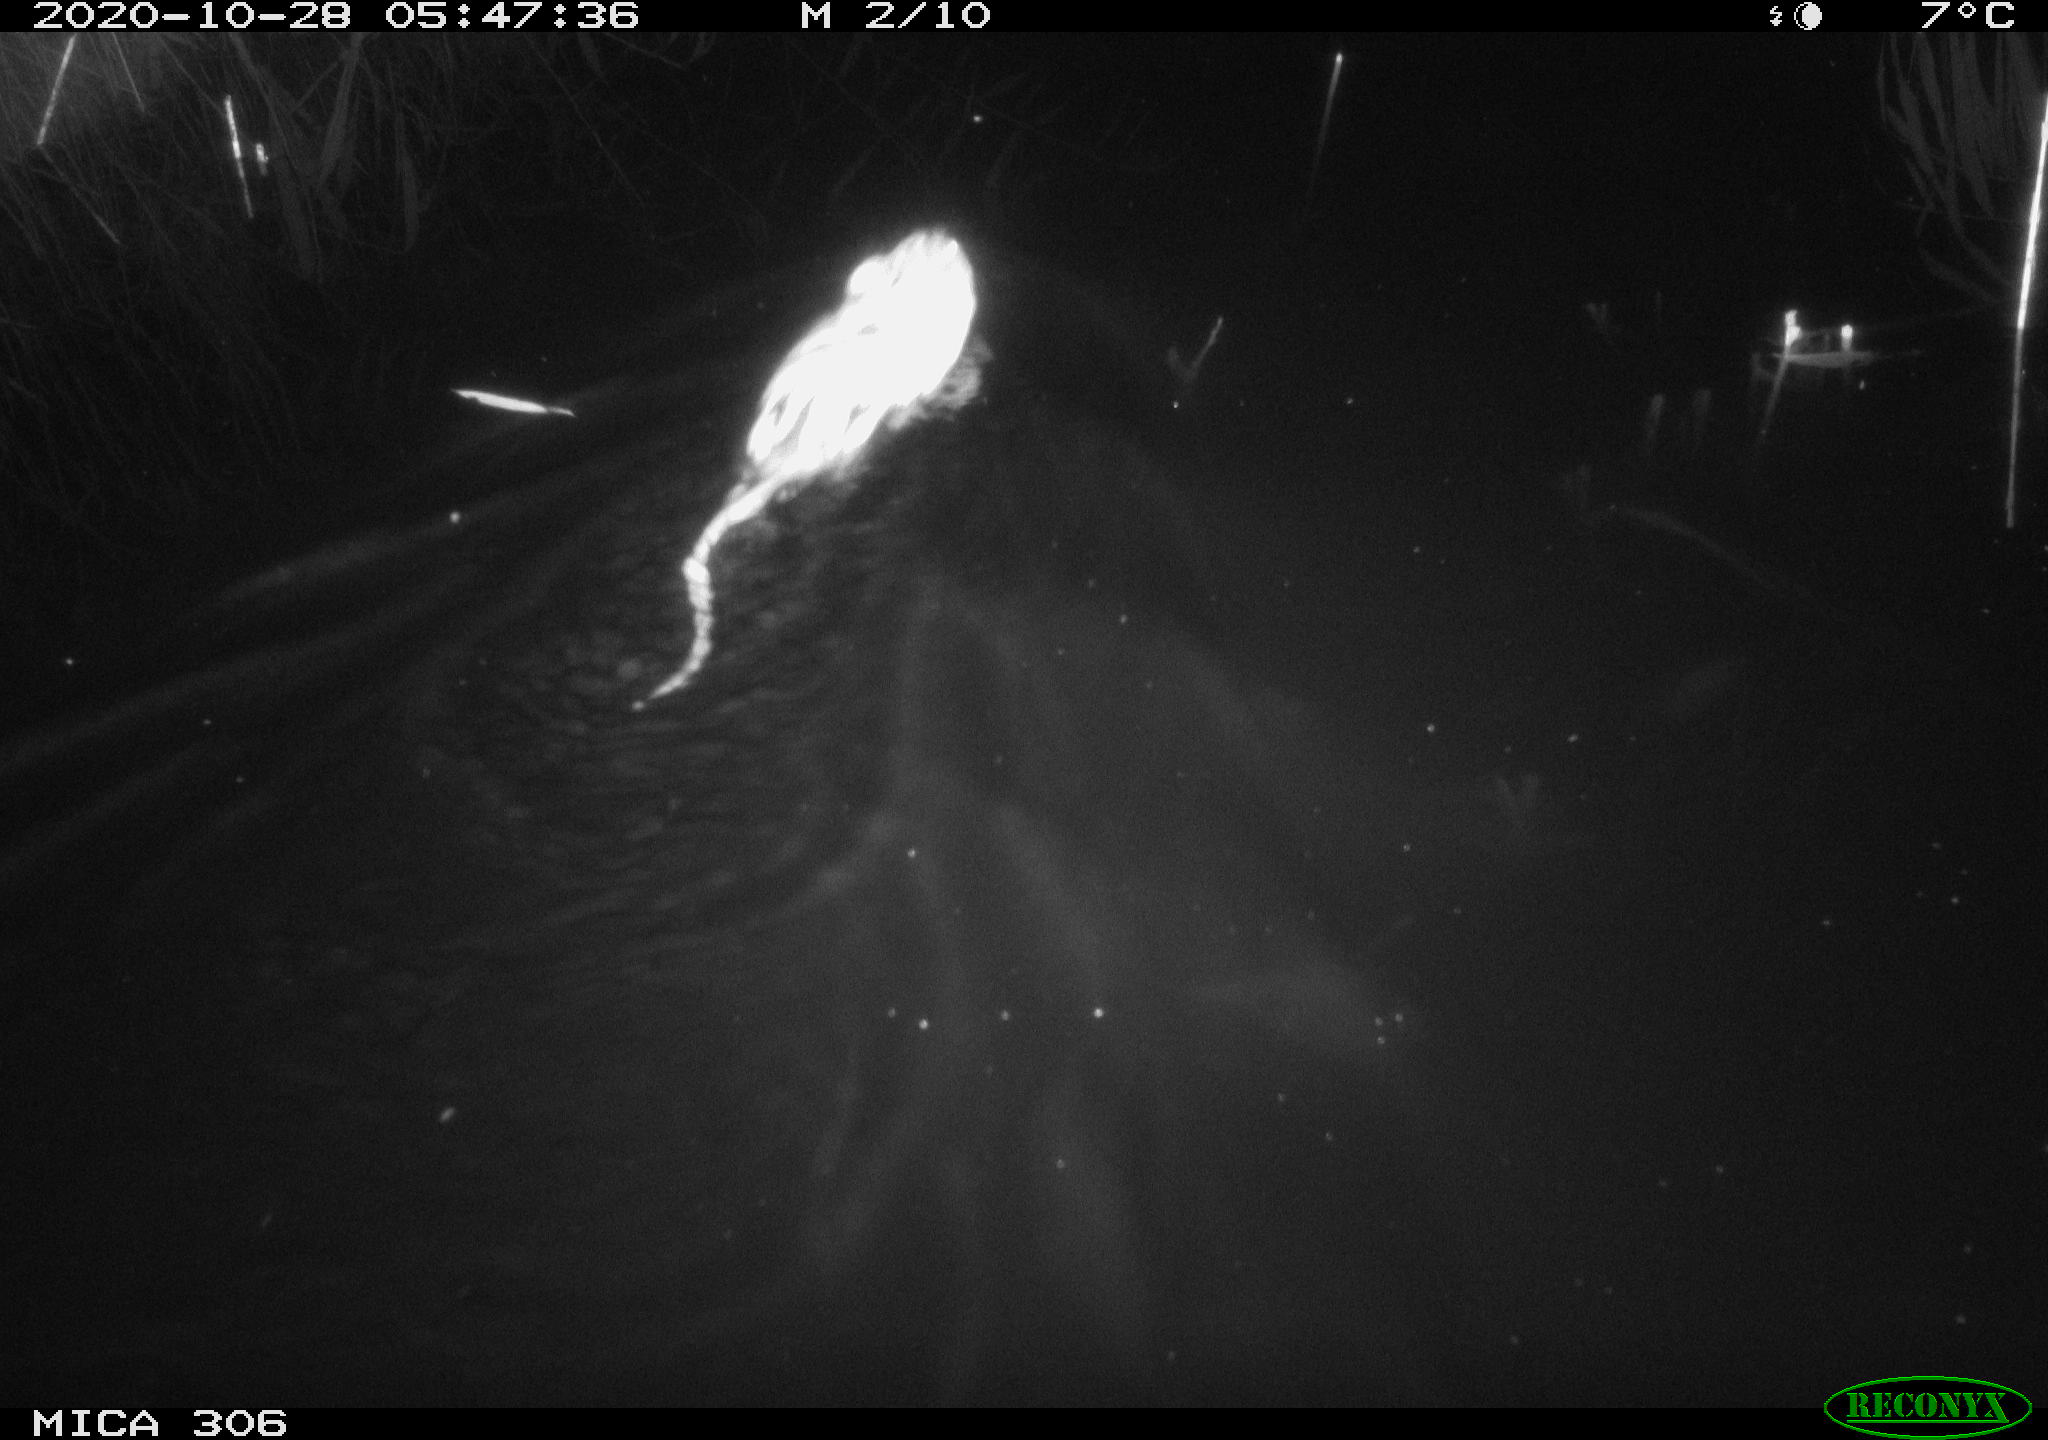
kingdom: Animalia
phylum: Chordata
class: Mammalia
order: Rodentia
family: Cricetidae
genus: Ondatra
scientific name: Ondatra zibethicus
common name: Muskrat
